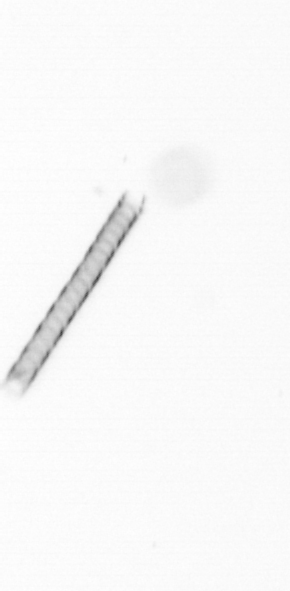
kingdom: Chromista
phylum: Ochrophyta
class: Bacillariophyceae
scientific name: Bacillariophyceae
